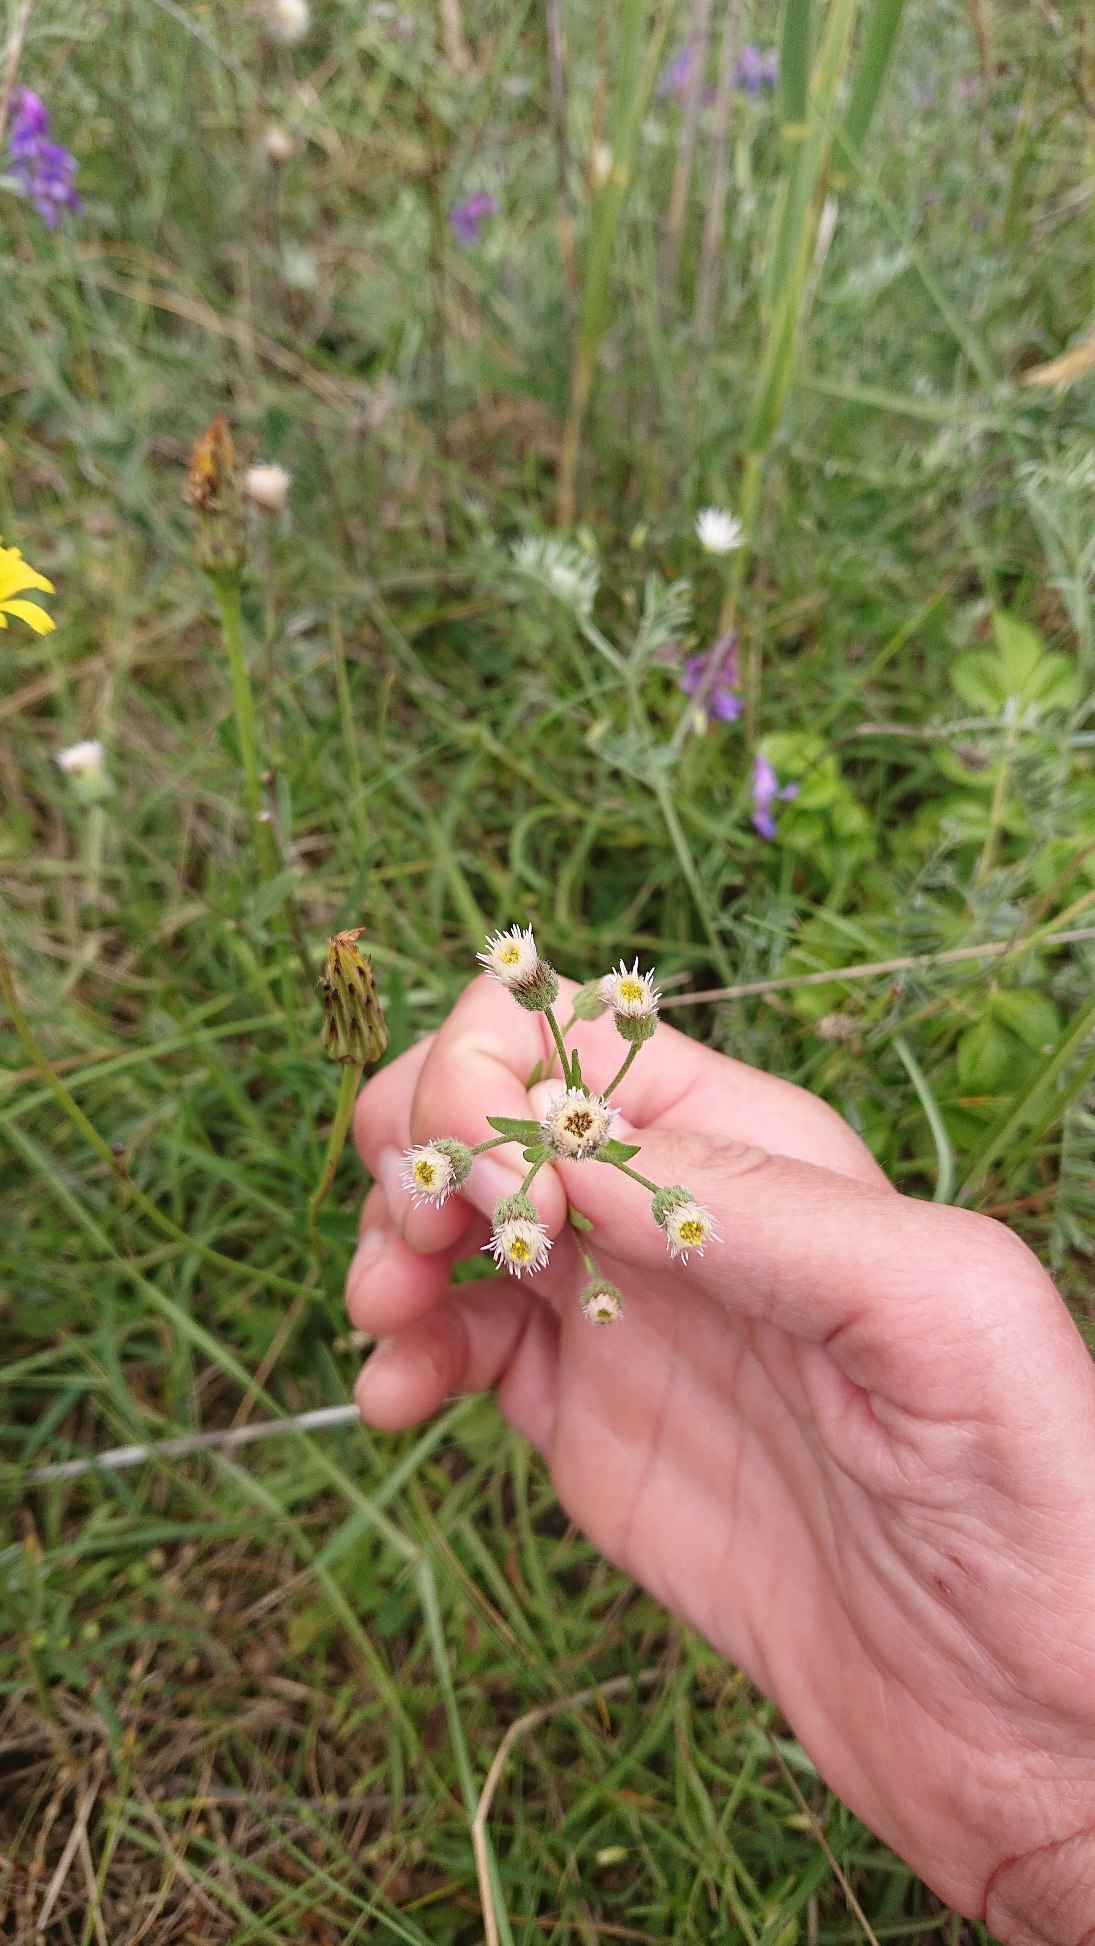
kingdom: Plantae
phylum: Tracheophyta
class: Magnoliopsida
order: Asterales
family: Asteraceae
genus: Erigeron
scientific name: Erigeron acris
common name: Bitter bakkestjerne
